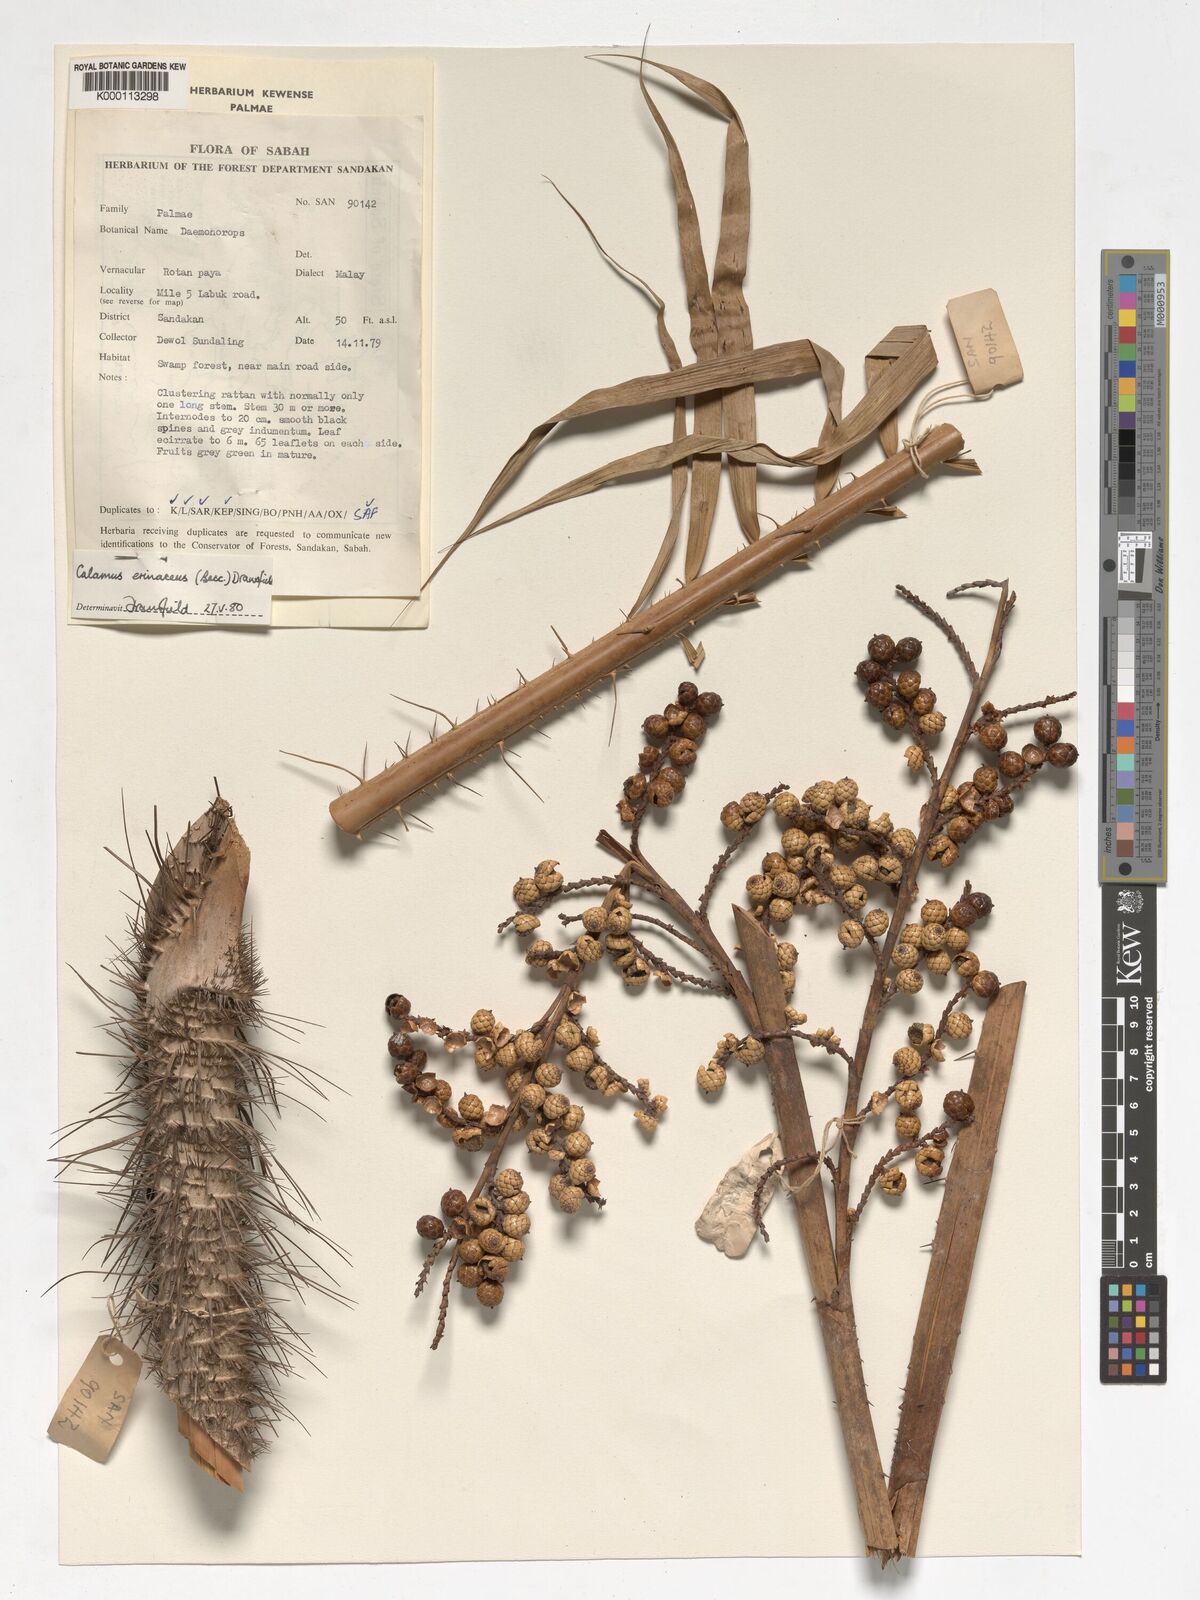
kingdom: Plantae
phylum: Tracheophyta
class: Liliopsida
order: Arecales
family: Arecaceae
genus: Calamus
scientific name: Calamus
